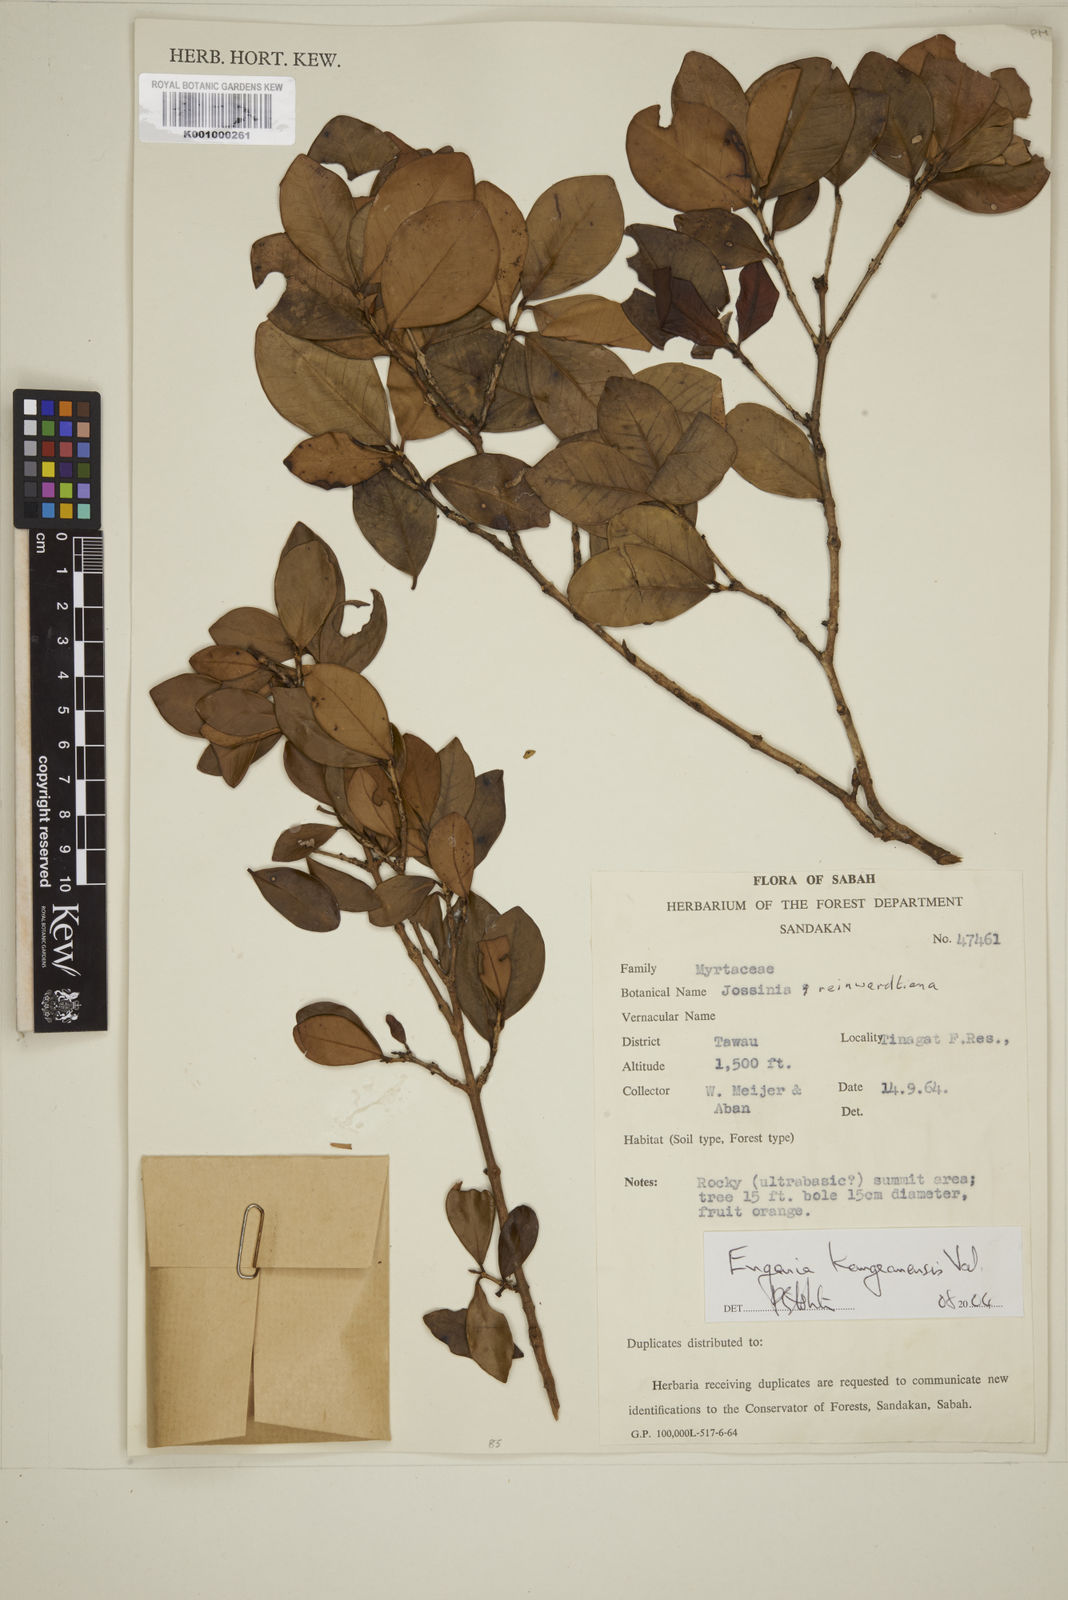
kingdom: Plantae
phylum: Tracheophyta
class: Magnoliopsida
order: Myrtales
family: Myrtaceae
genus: Eugenia
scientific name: Eugenia reinwardtiana
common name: Cedar bay-cherry
